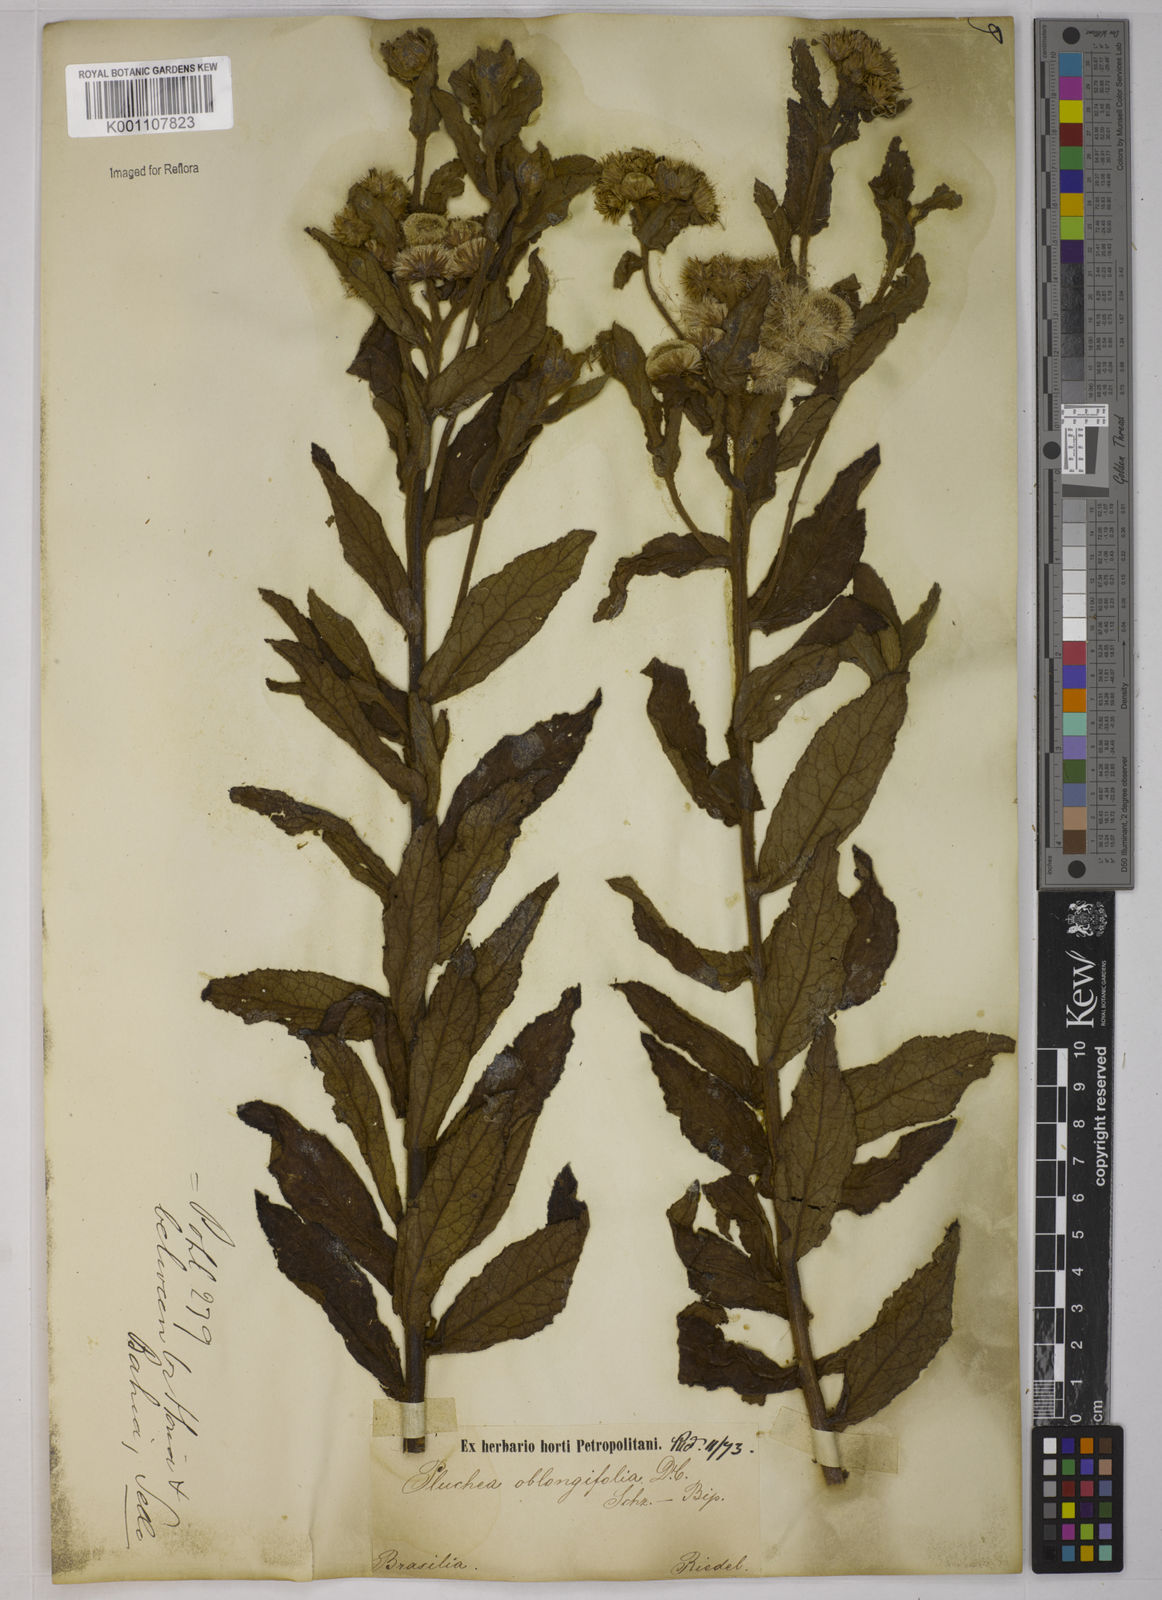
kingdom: Plantae
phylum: Tracheophyta
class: Magnoliopsida
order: Asterales
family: Asteraceae
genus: Pluchea
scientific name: Pluchea oblongifolia
